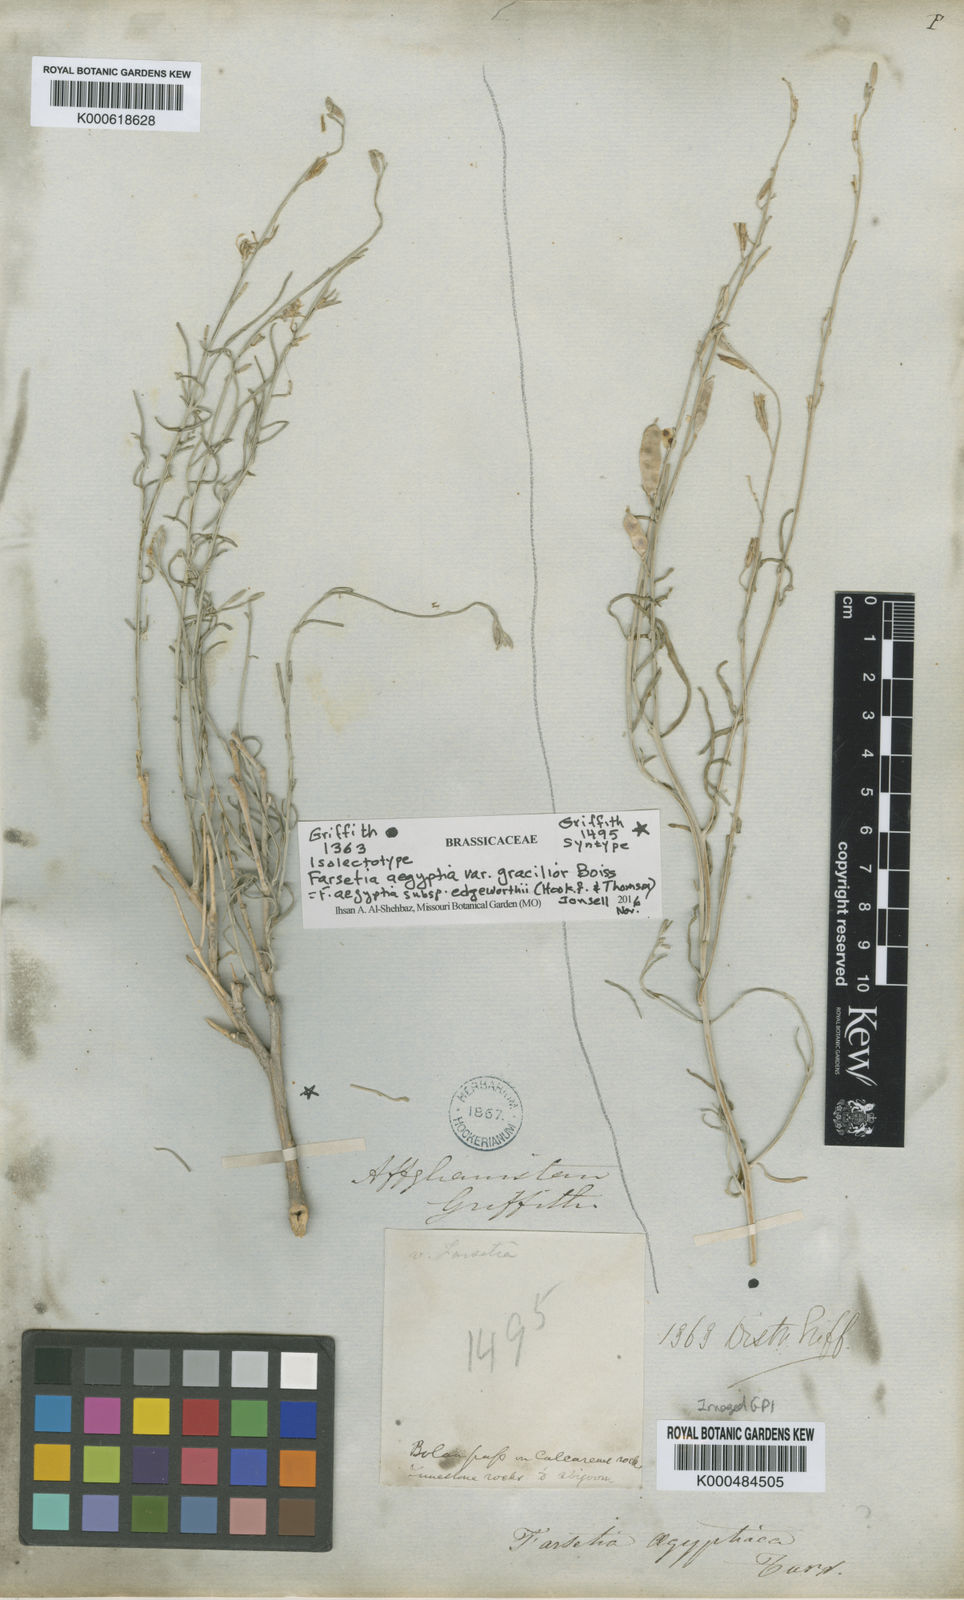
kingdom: Plantae
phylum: Tracheophyta
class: Magnoliopsida
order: Brassicales
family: Brassicaceae
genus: Farsetia
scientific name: Farsetia aegyptia
